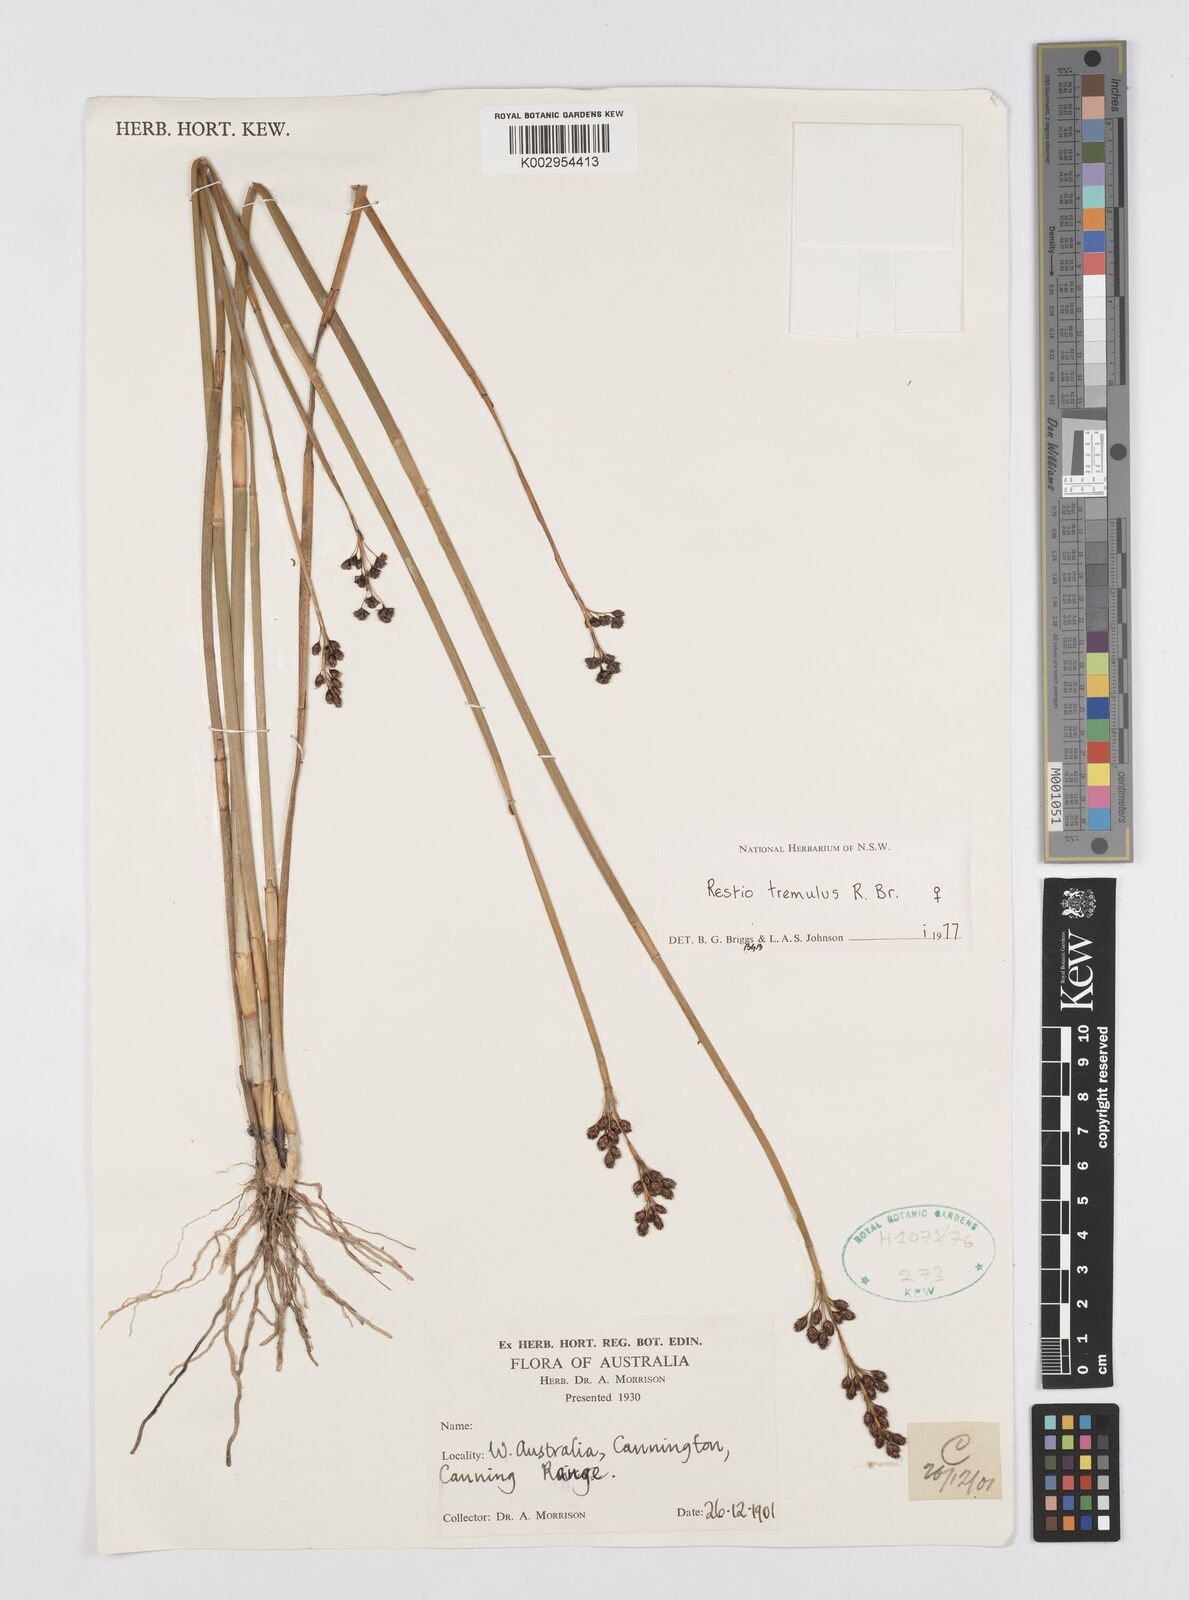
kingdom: Plantae
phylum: Tracheophyta
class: Liliopsida
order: Poales
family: Restionaceae
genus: Tremulina
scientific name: Tremulina tremula
